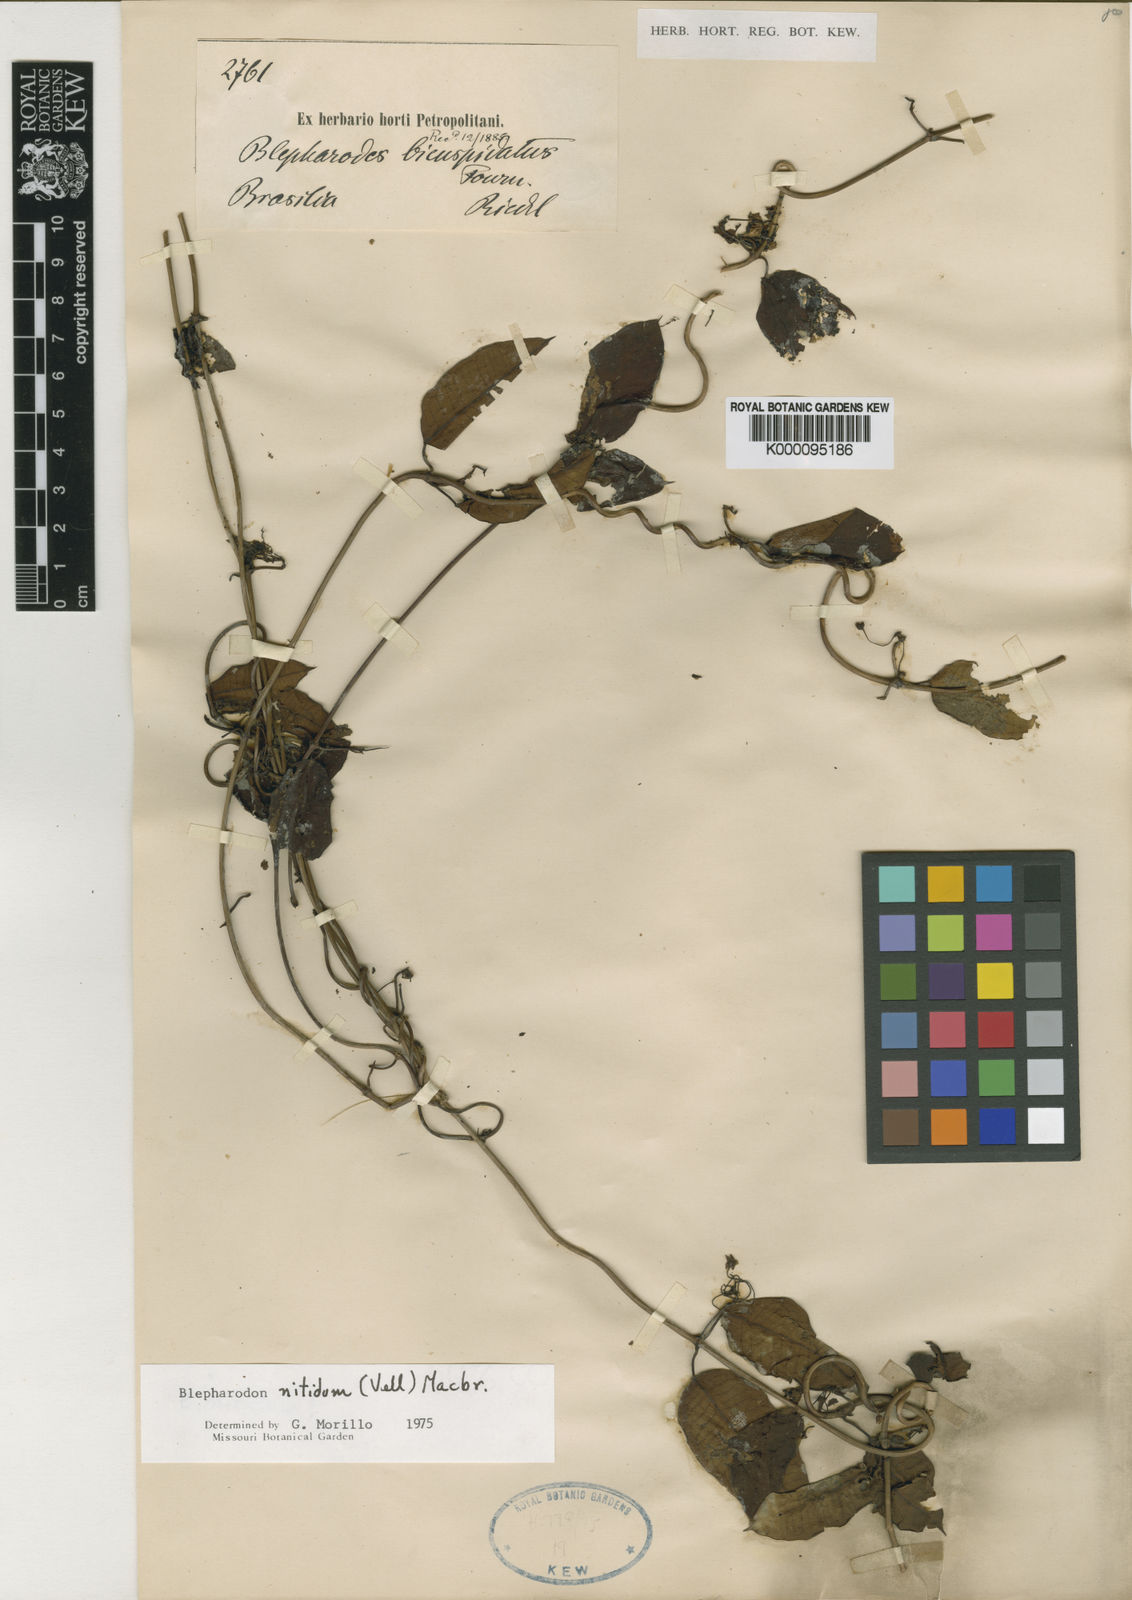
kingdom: Plantae
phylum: Tracheophyta
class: Magnoliopsida
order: Gentianales
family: Apocynaceae
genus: Blepharodon
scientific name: Blepharodon bicuspidatum
